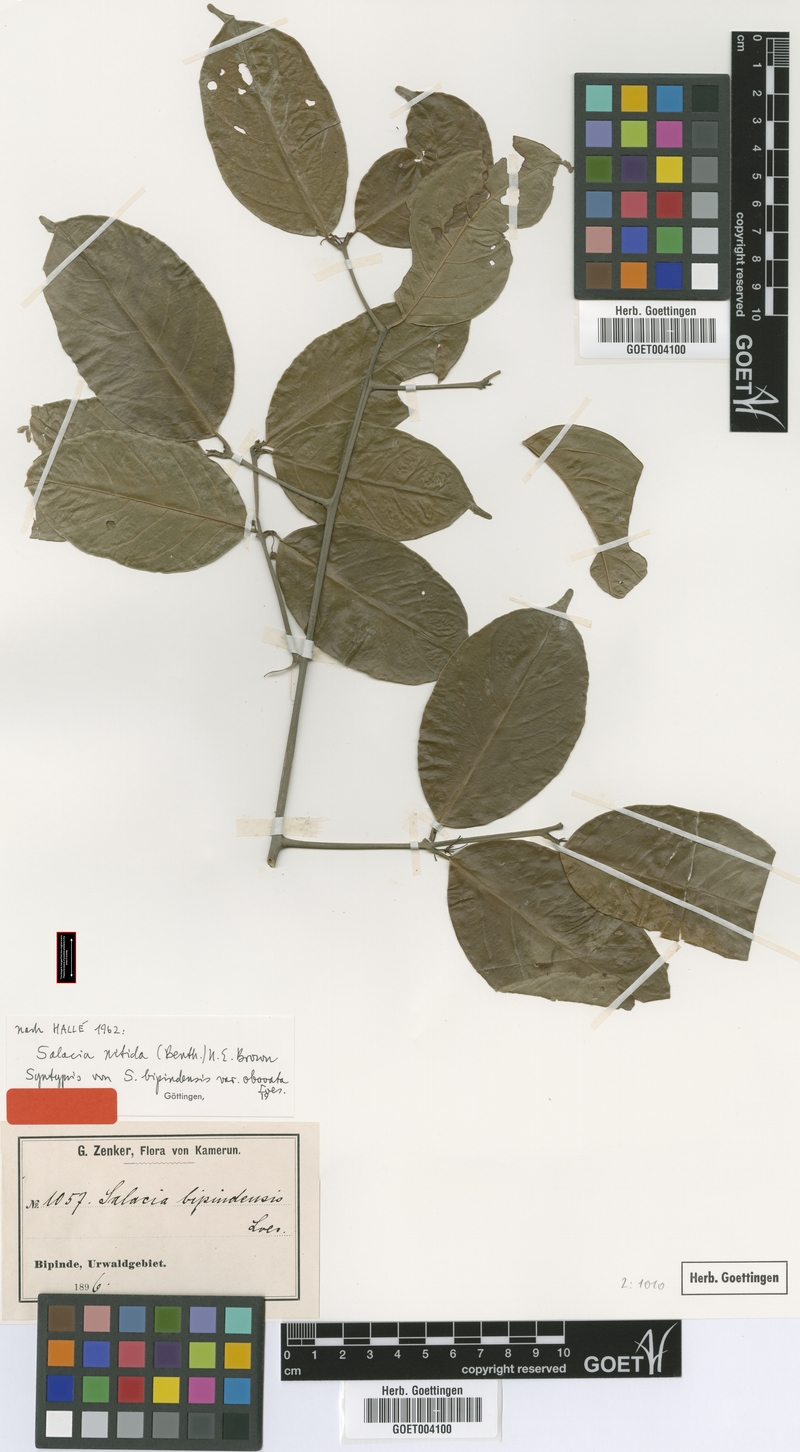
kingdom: Plantae
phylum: Tracheophyta
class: Magnoliopsida
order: Celastrales
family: Celastraceae
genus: Salacia
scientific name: Salacia nitida
